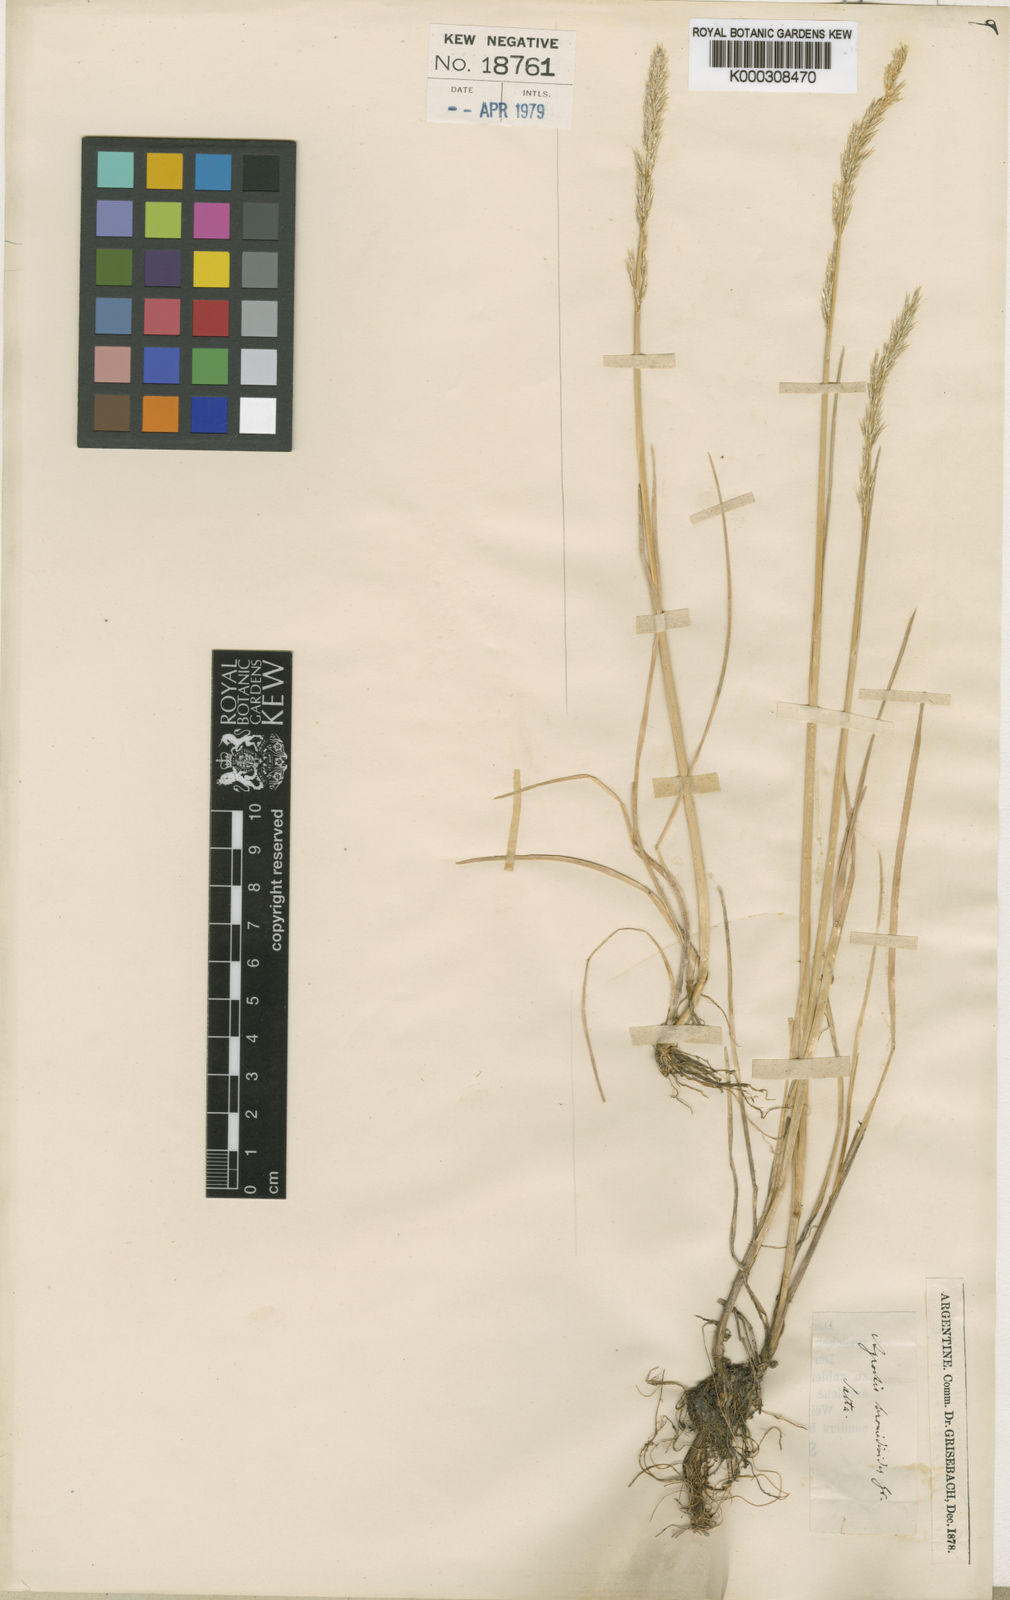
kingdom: Plantae
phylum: Tracheophyta
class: Liliopsida
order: Poales
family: Poaceae
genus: Cinnagrostis
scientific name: Cinnagrostis rigescens
